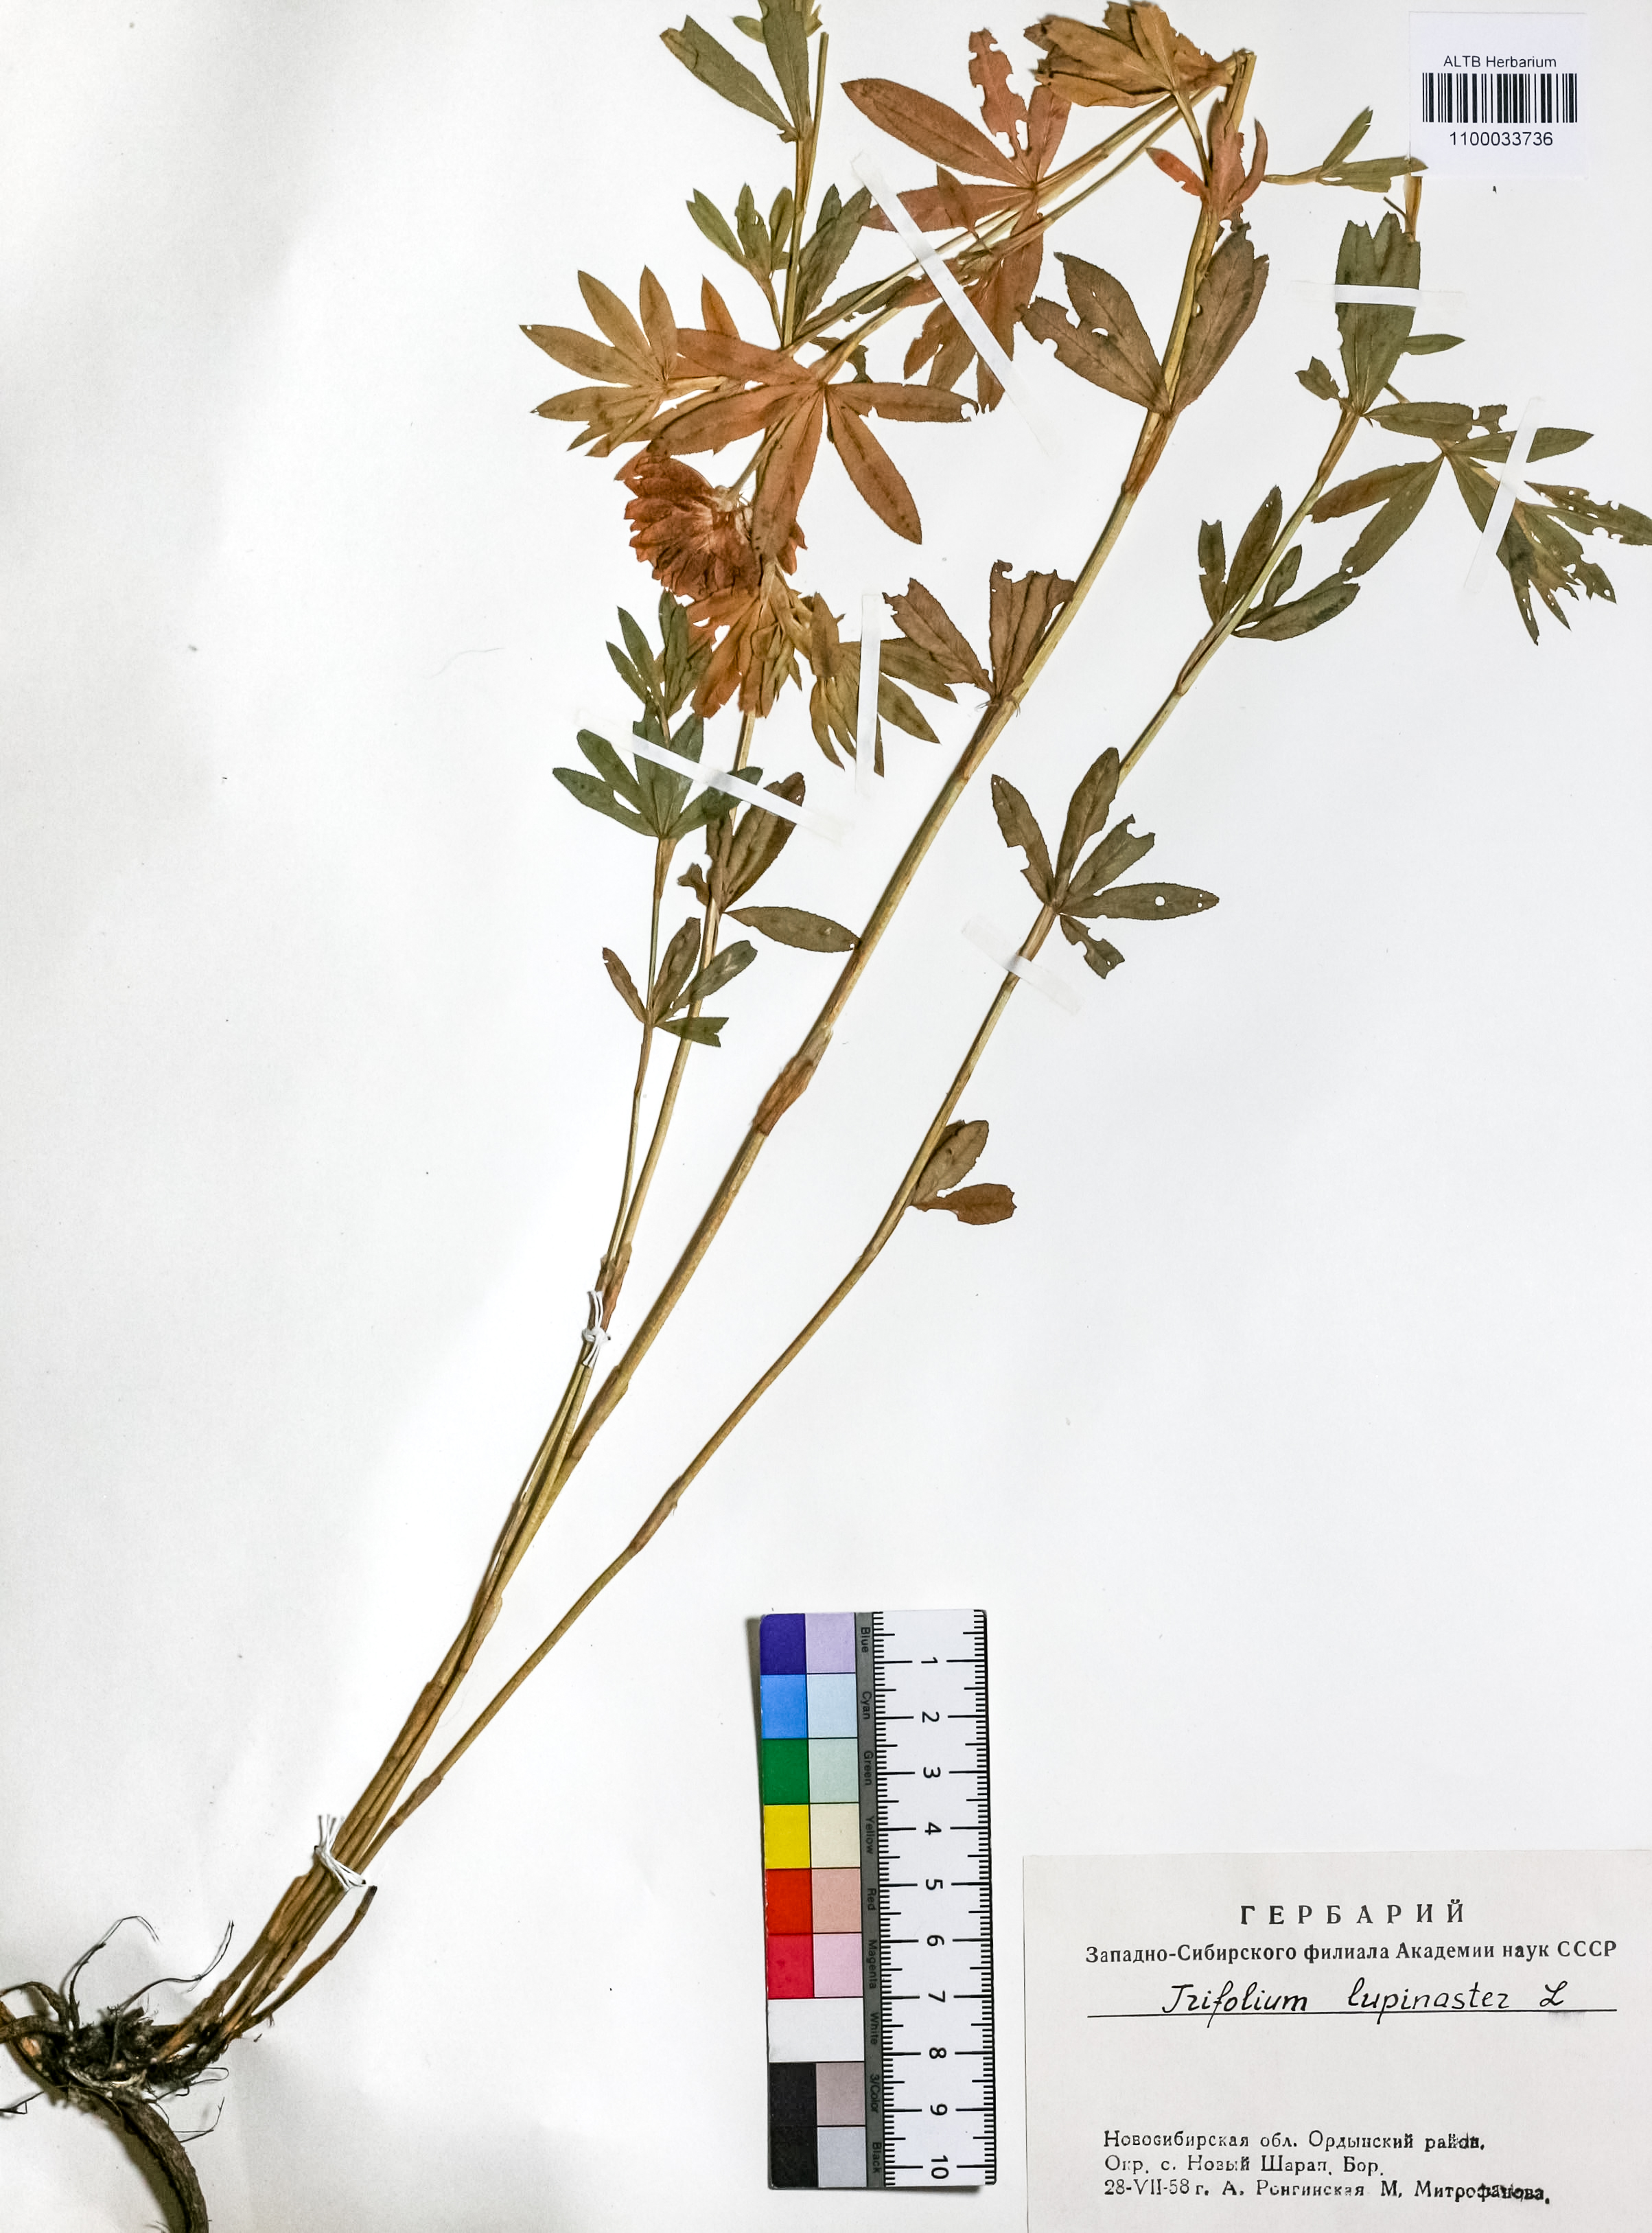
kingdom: Plantae
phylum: Tracheophyta
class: Magnoliopsida
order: Fabales
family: Fabaceae
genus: Trifolium
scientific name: Trifolium lupinaster
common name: Lupine clover
